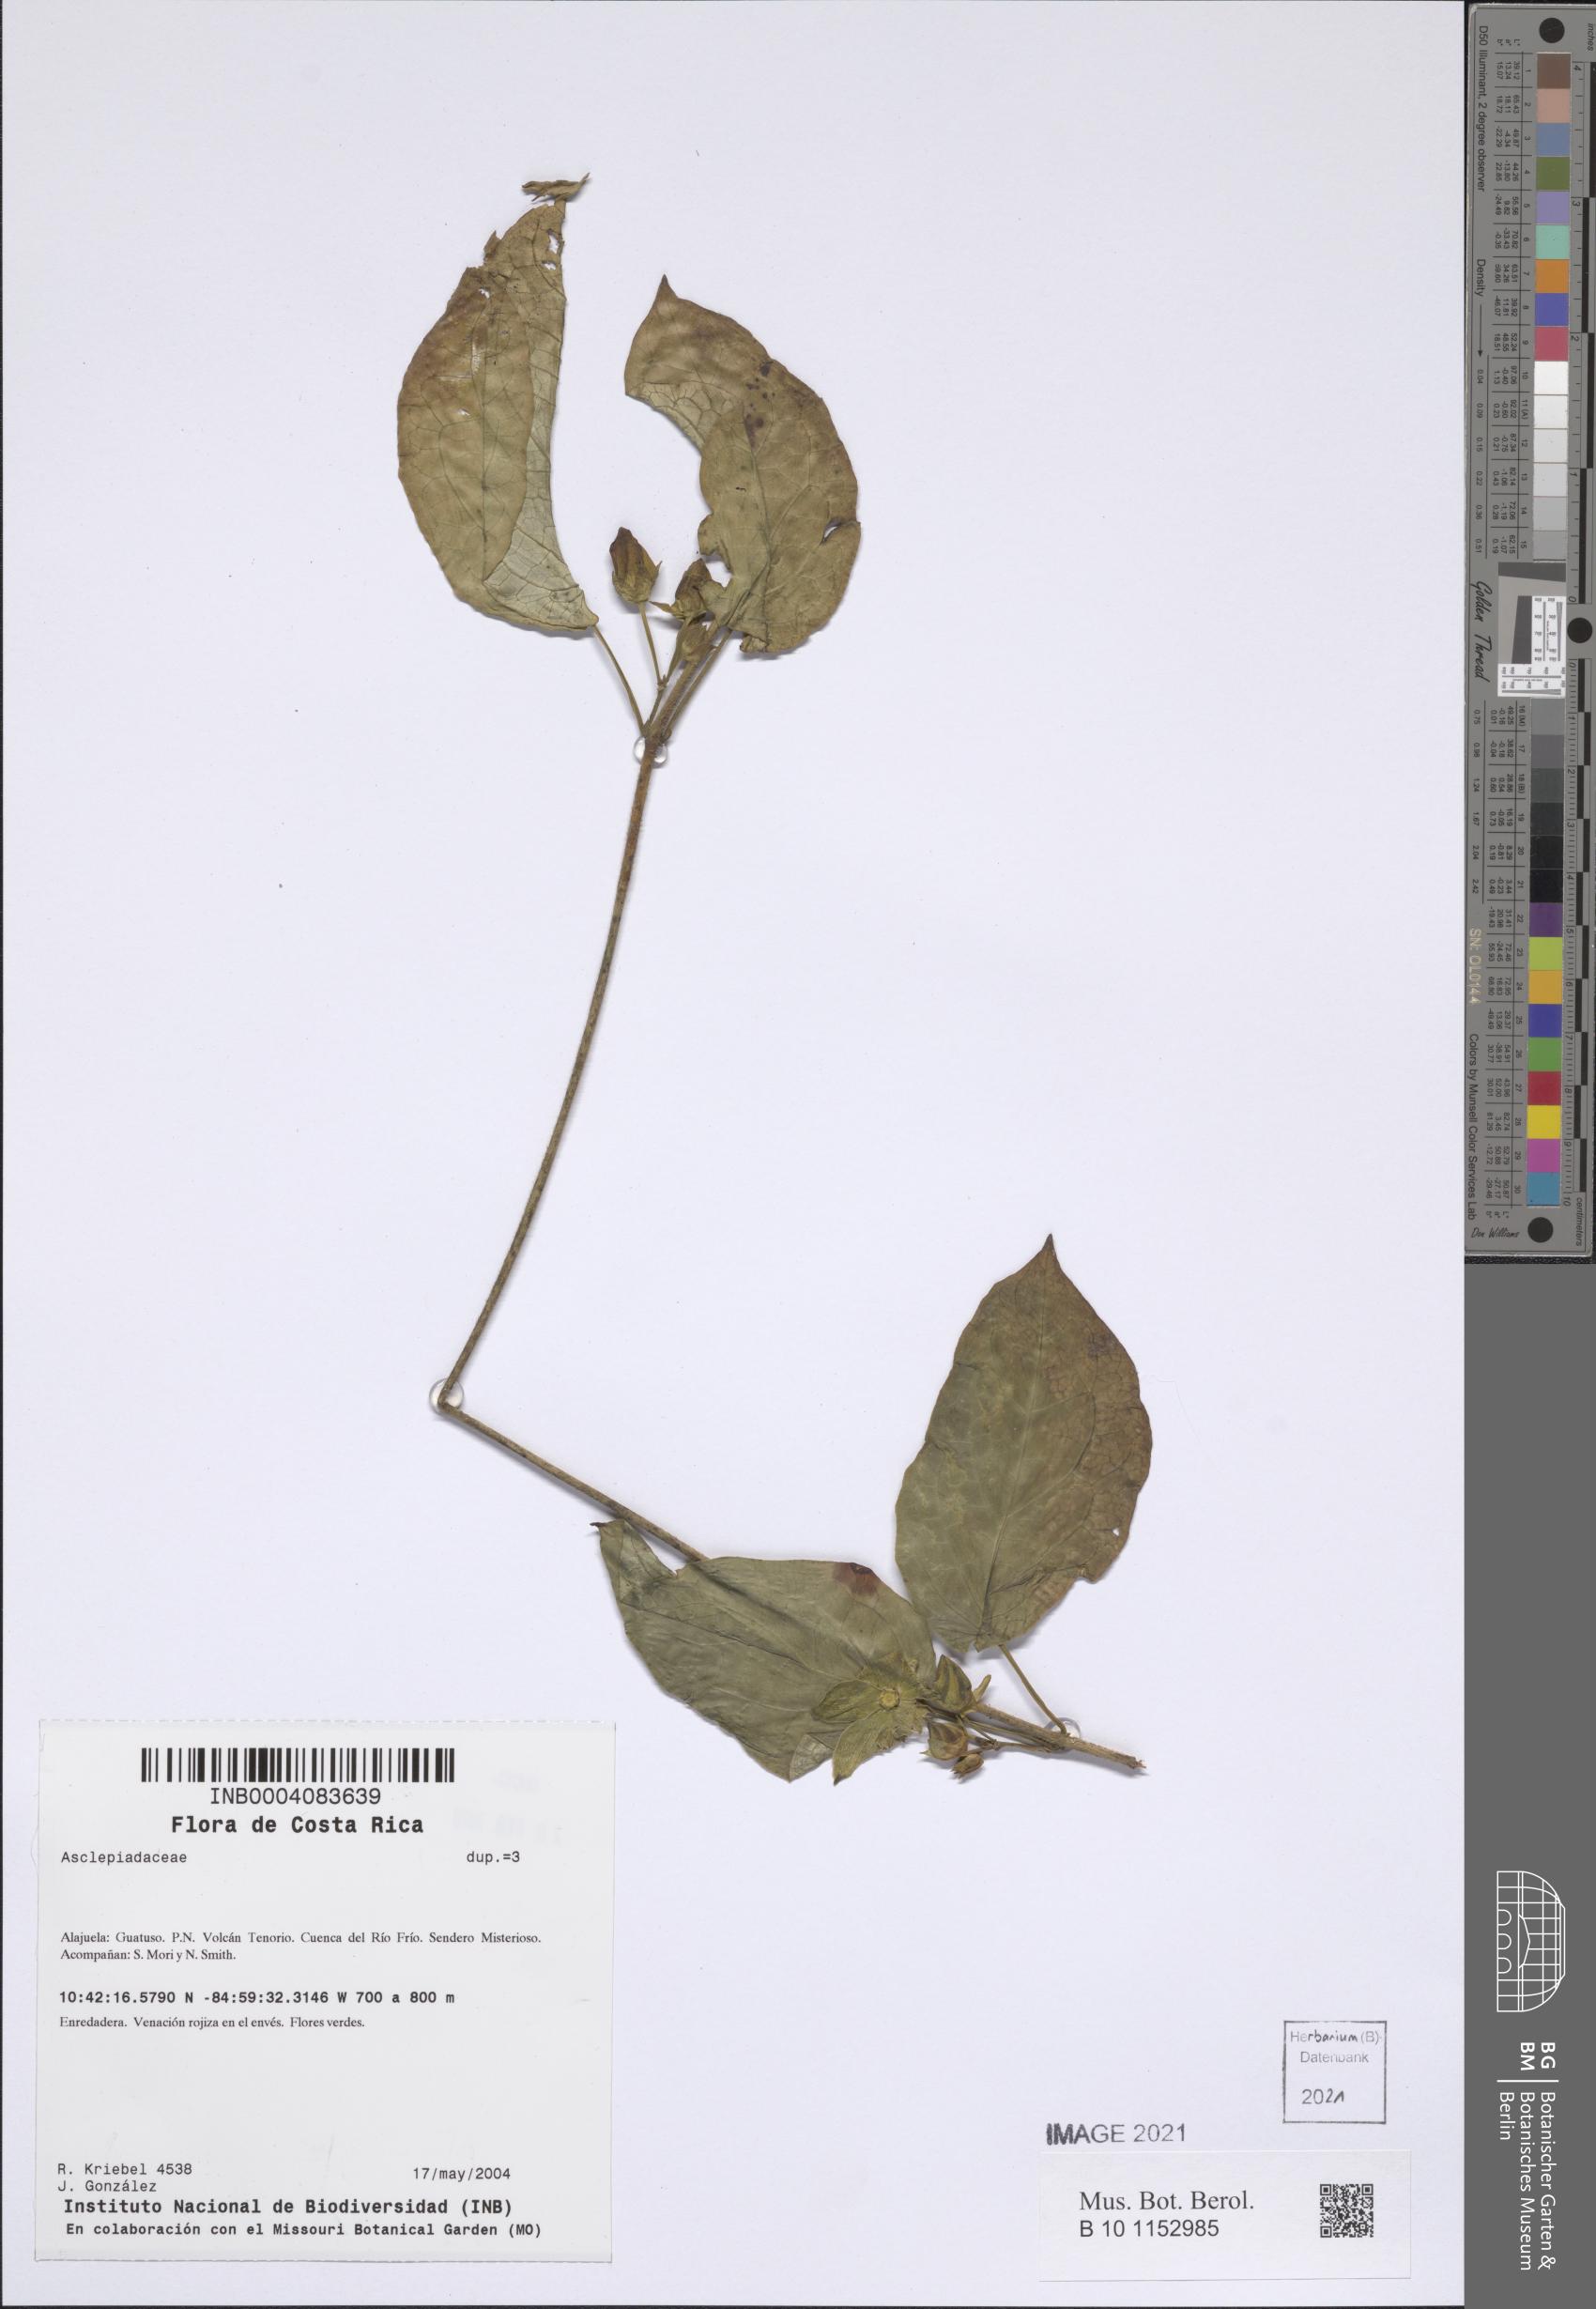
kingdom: Plantae
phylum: Tracheophyta
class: Magnoliopsida
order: Gentianales
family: Apocynaceae
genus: Chloropetalum
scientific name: Chloropetalum denticulatum
